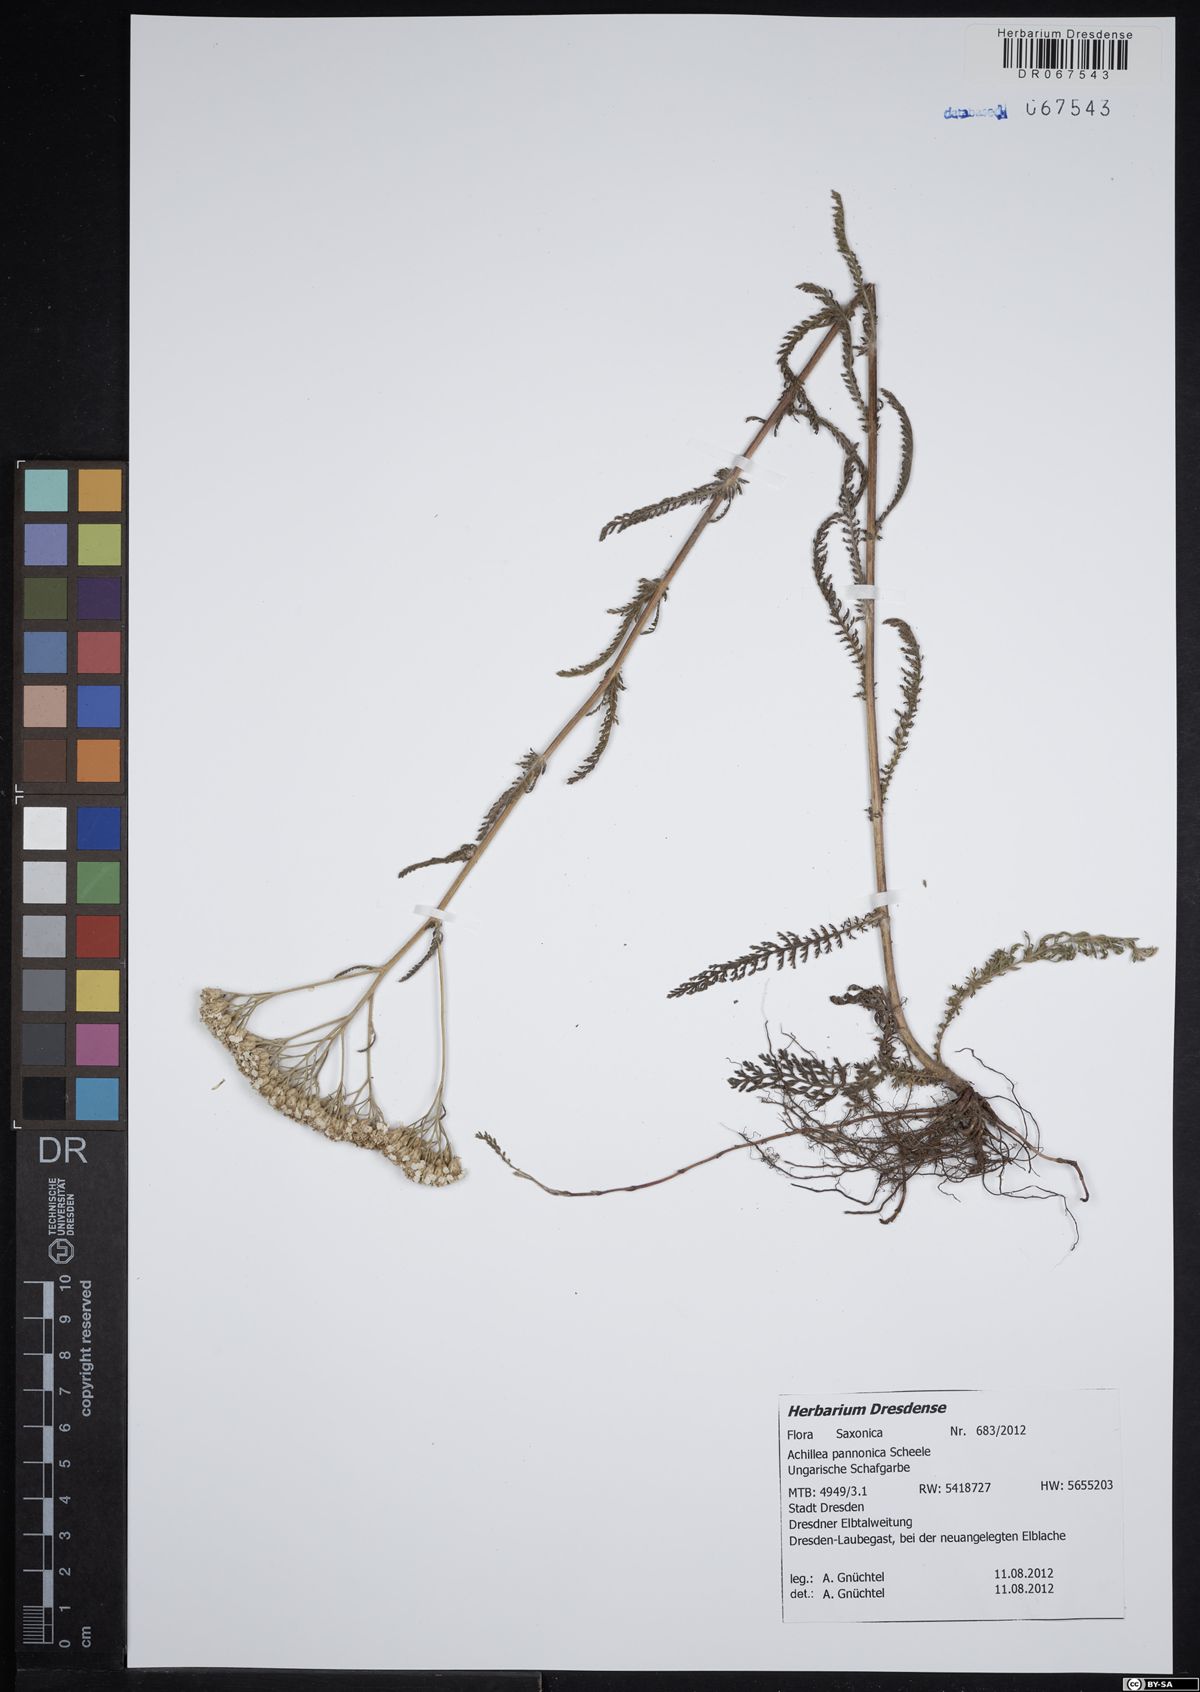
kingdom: Plantae
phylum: Tracheophyta
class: Magnoliopsida
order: Asterales
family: Asteraceae
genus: Achillea
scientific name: Achillea pannonica
